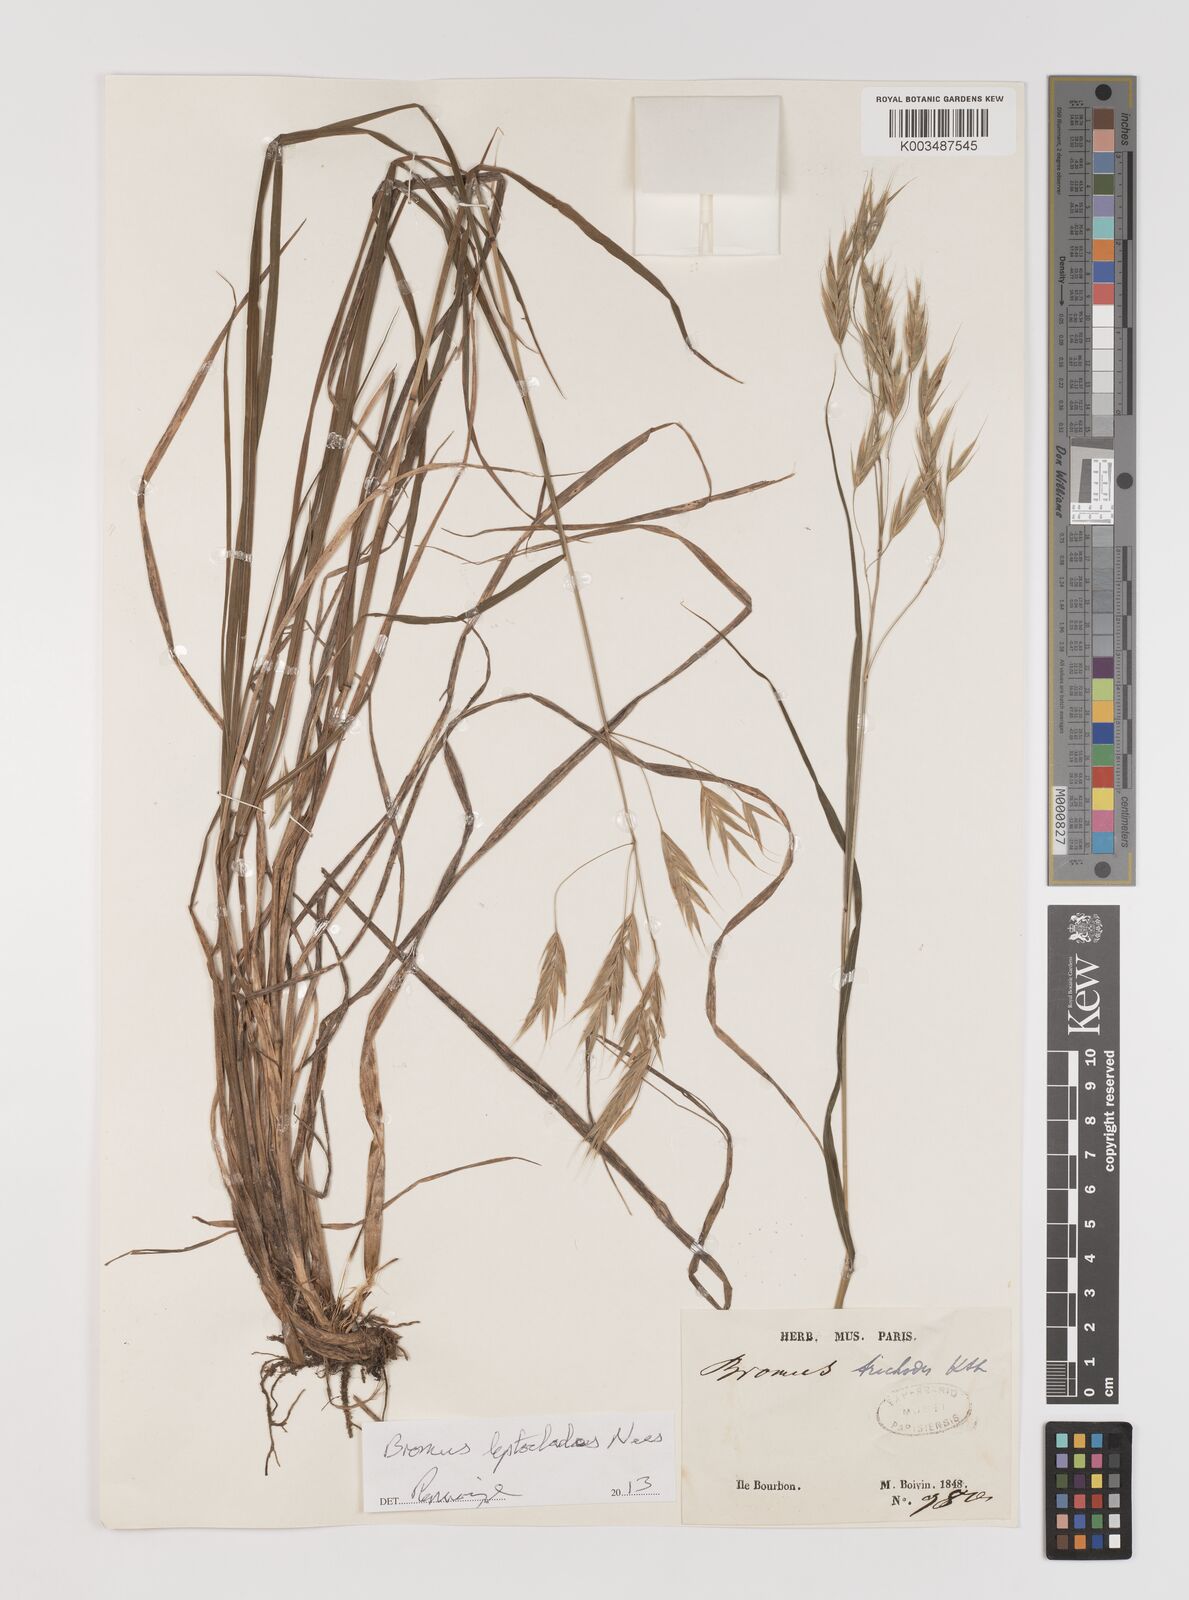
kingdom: Plantae
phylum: Tracheophyta
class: Liliopsida
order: Poales
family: Poaceae
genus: Bromus
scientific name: Bromus leptoclados
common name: Mountain bromegrass
